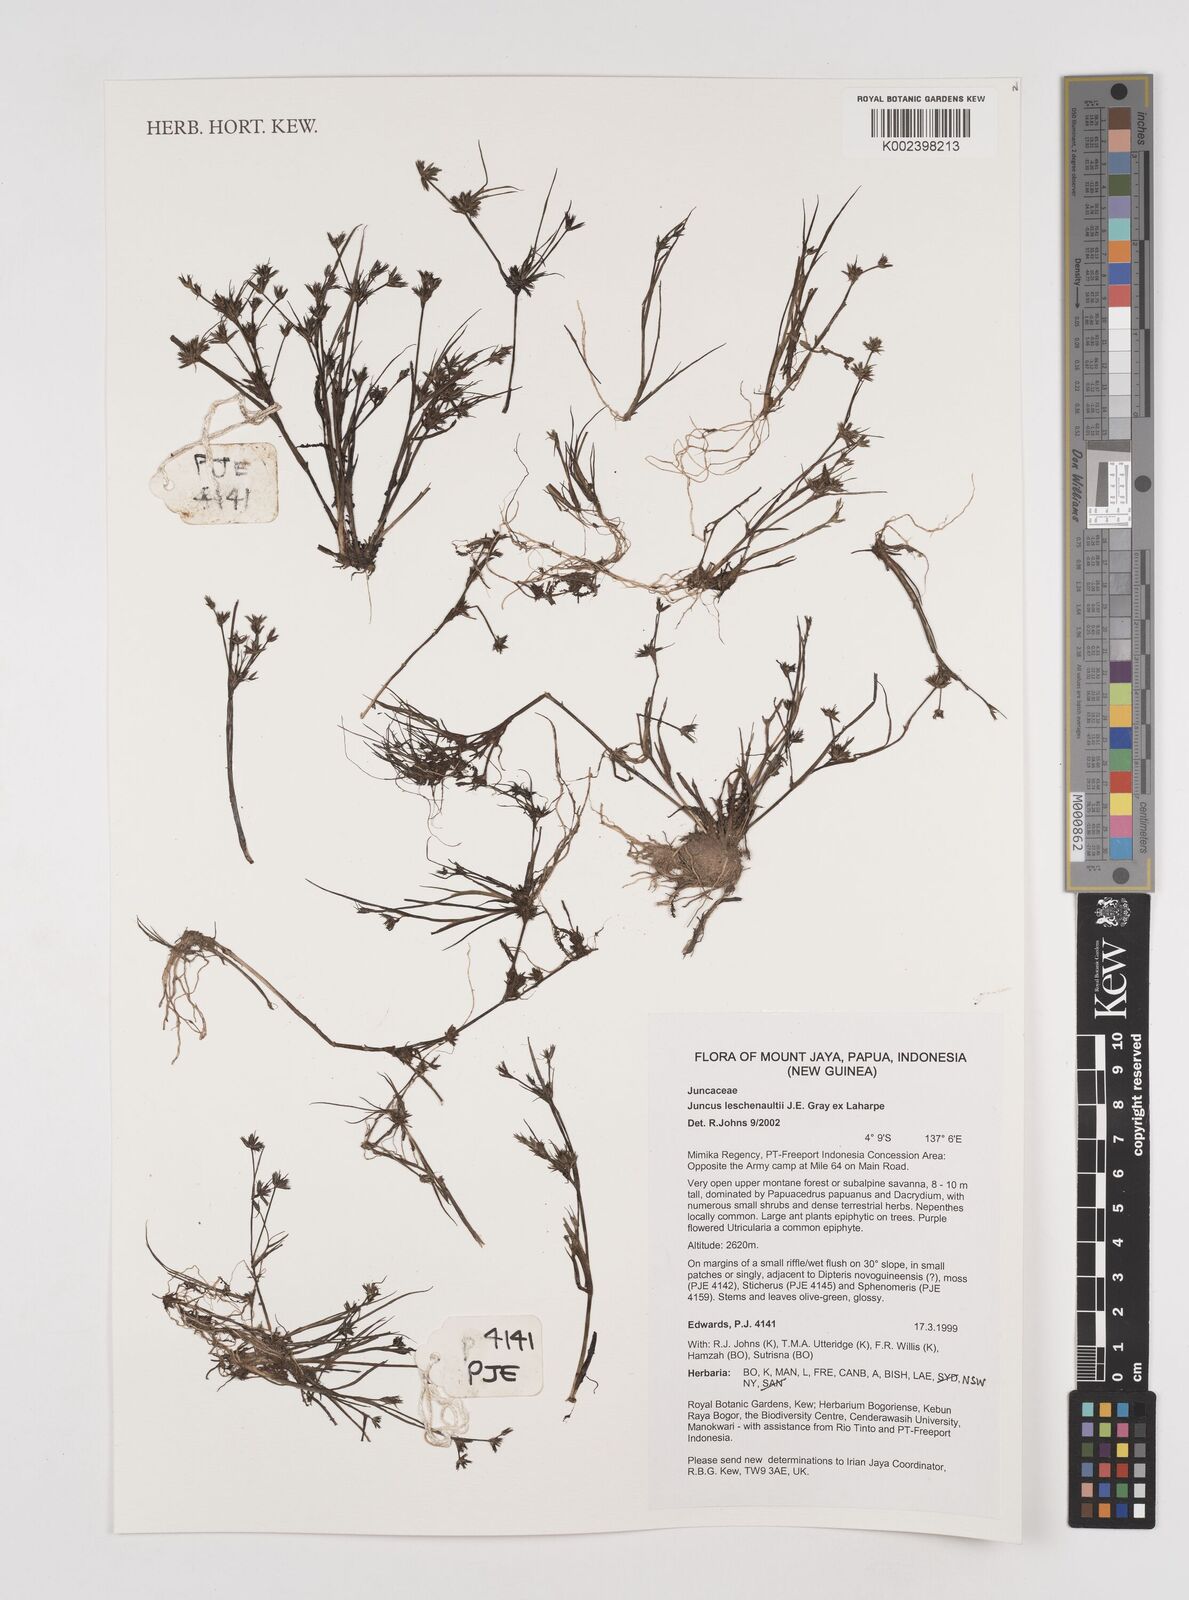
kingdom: Plantae
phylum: Tracheophyta
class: Liliopsida
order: Poales
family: Juncaceae
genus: Juncus
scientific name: Juncus prismatocarpus
